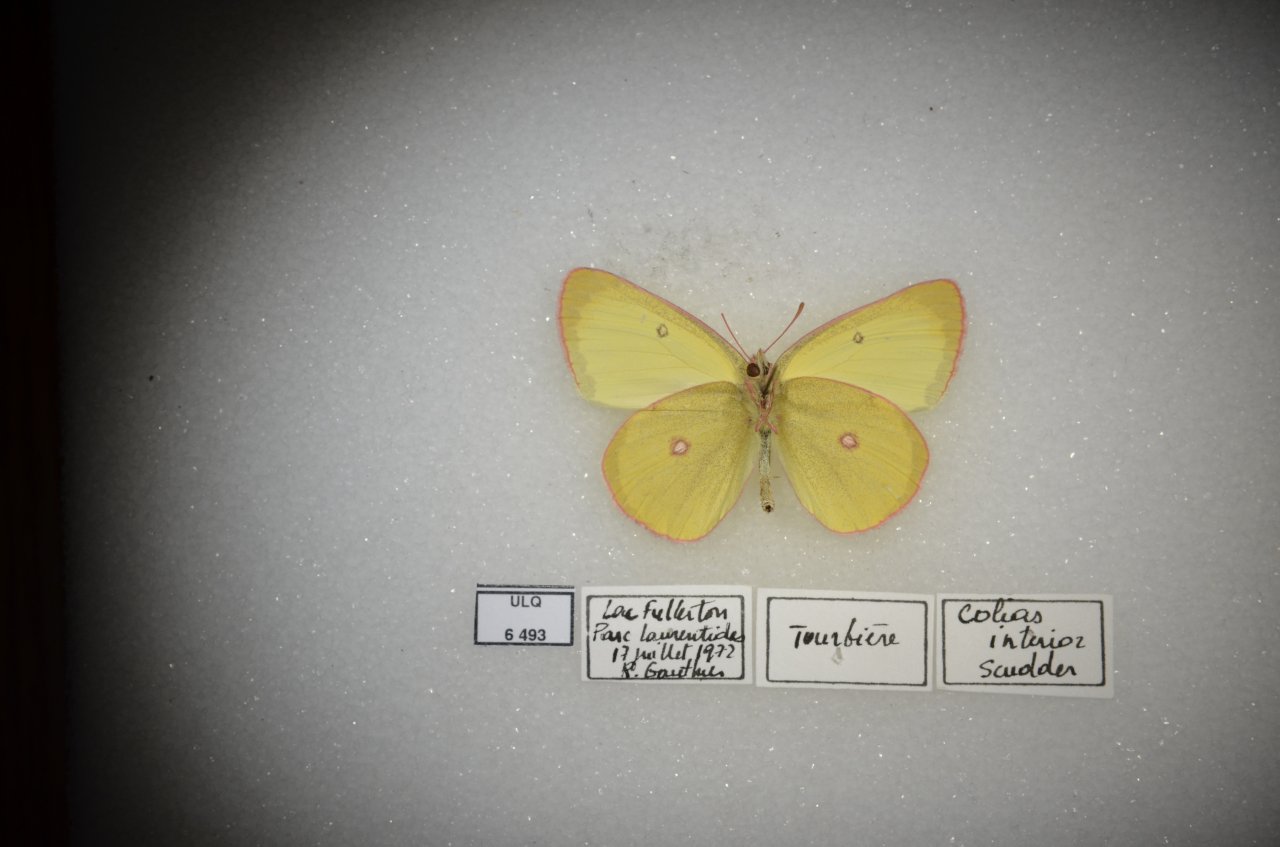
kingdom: Animalia
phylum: Arthropoda
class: Insecta
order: Lepidoptera
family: Pieridae
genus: Colias
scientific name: Colias interior
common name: Pink-edged Sulphur
